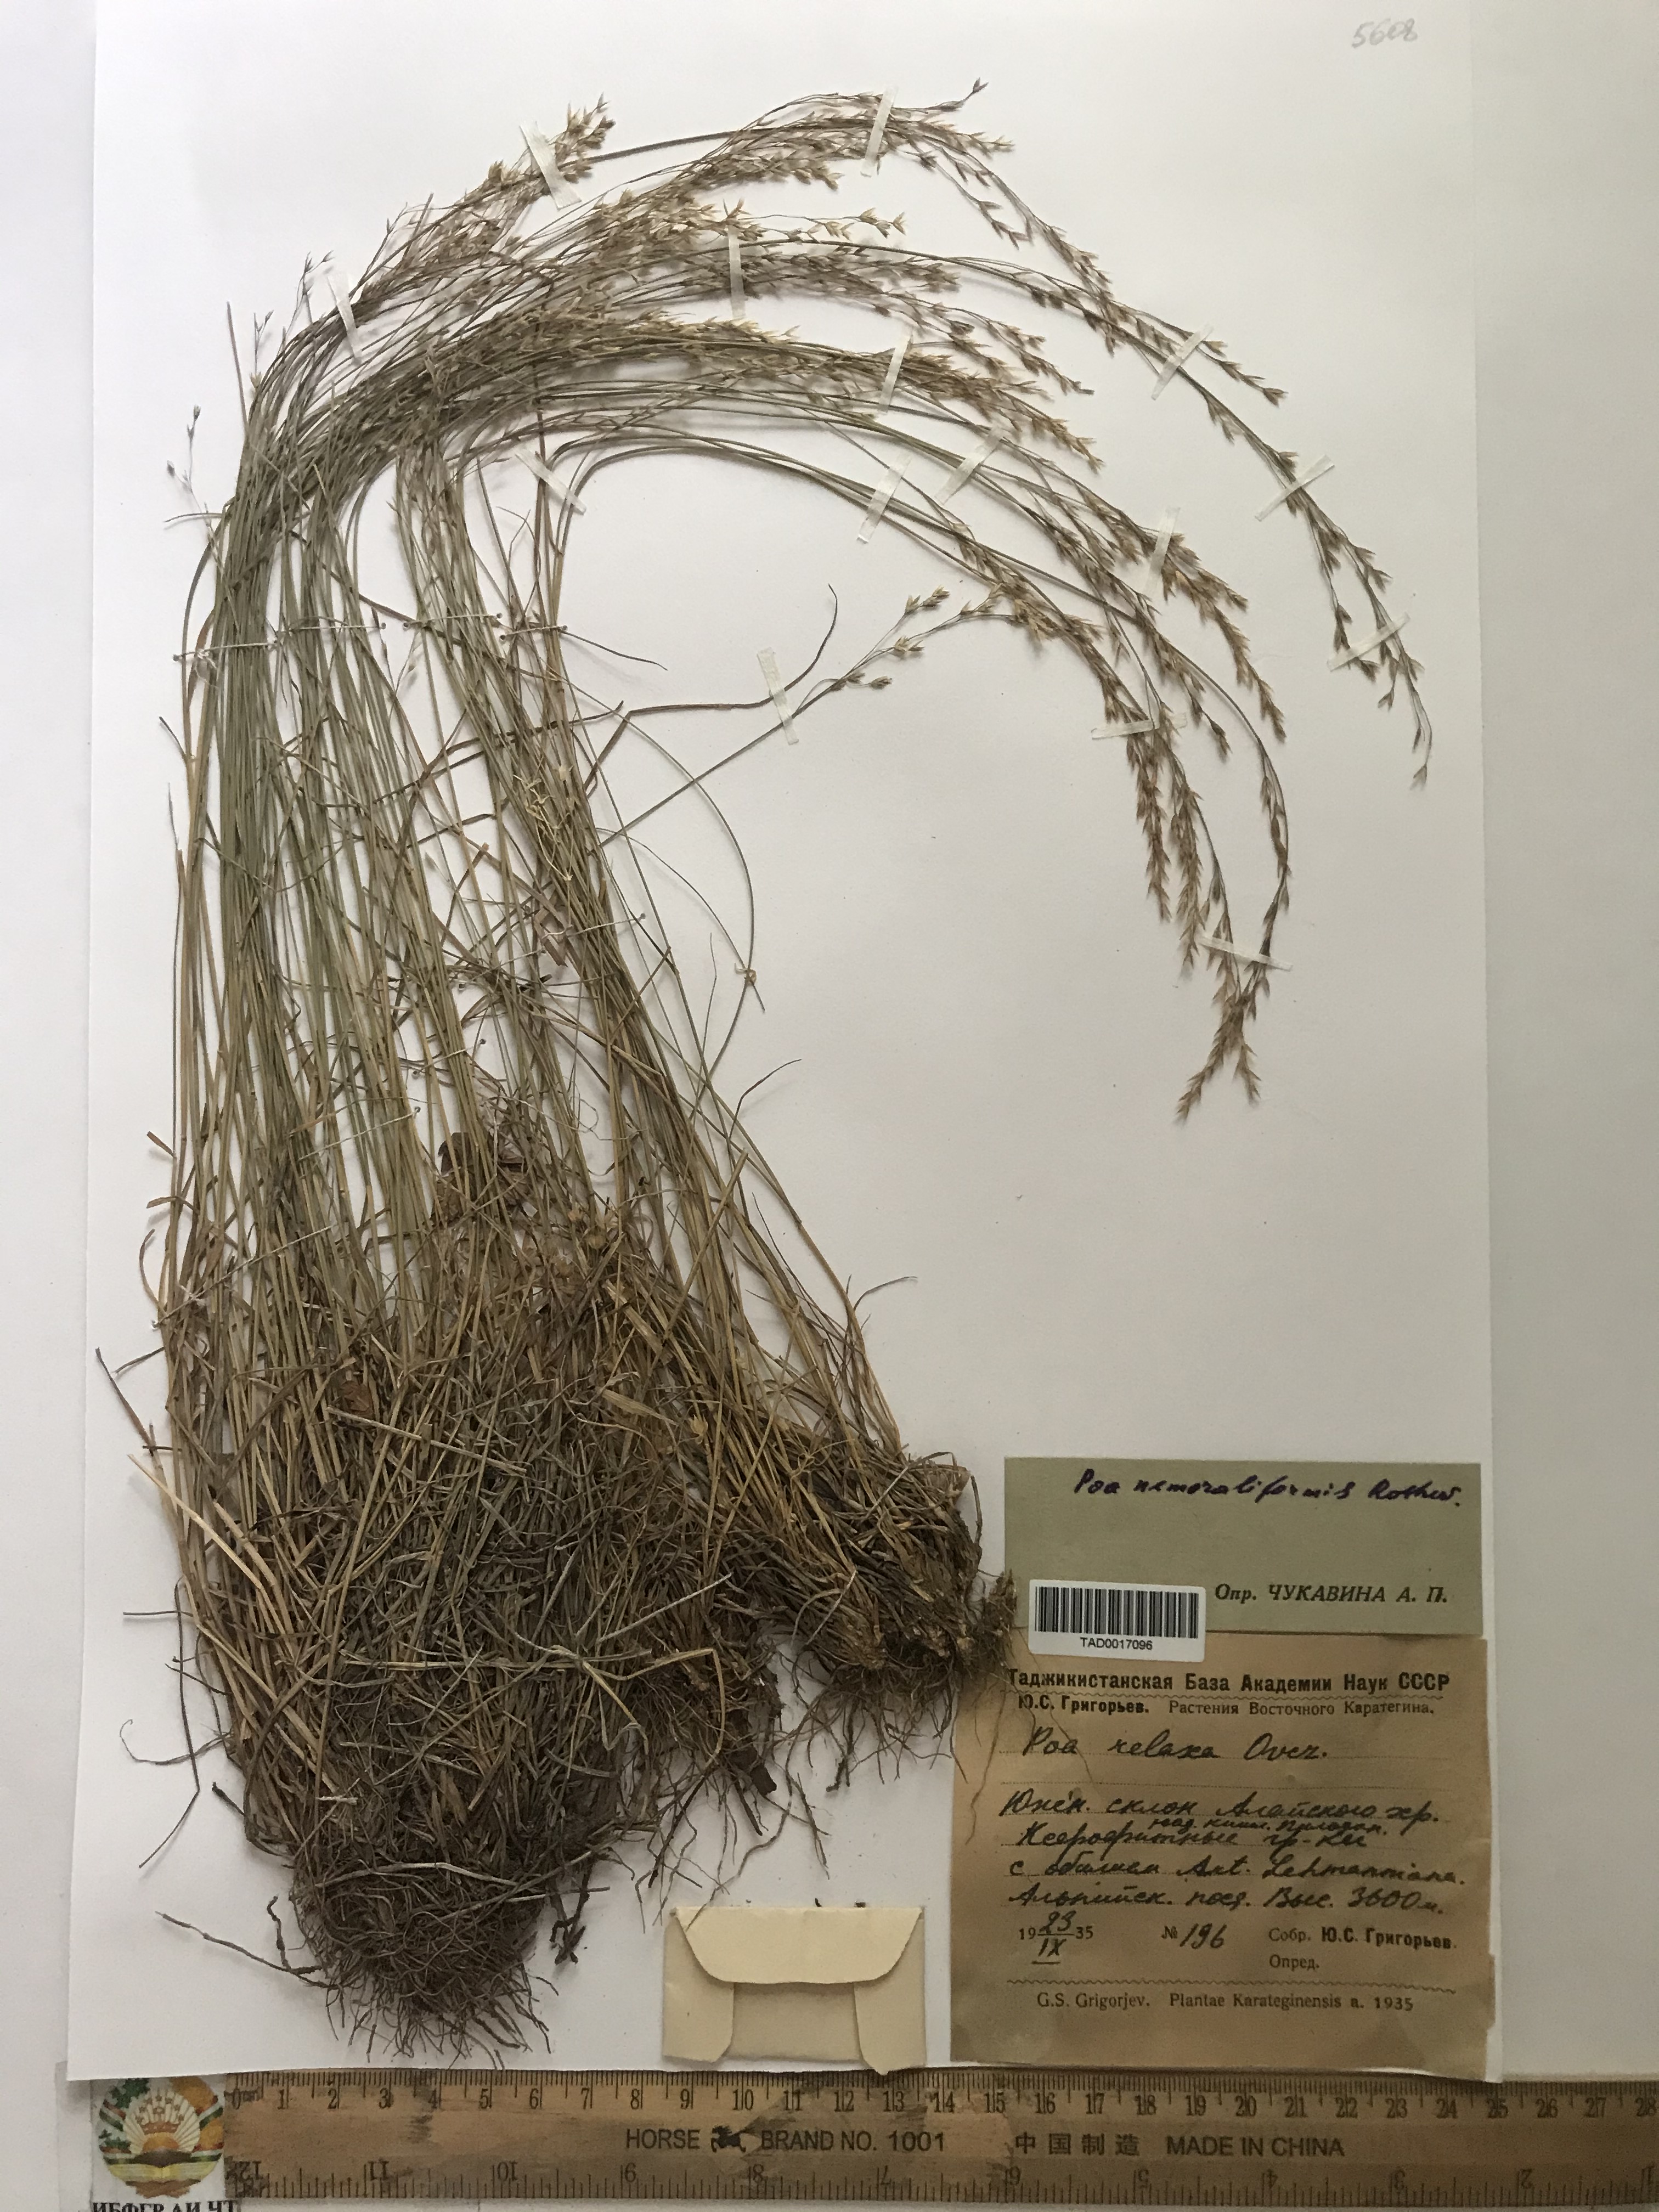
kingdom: Plantae
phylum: Tracheophyta
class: Liliopsida
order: Poales
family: Poaceae
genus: Poa
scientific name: Poa urssulensis
